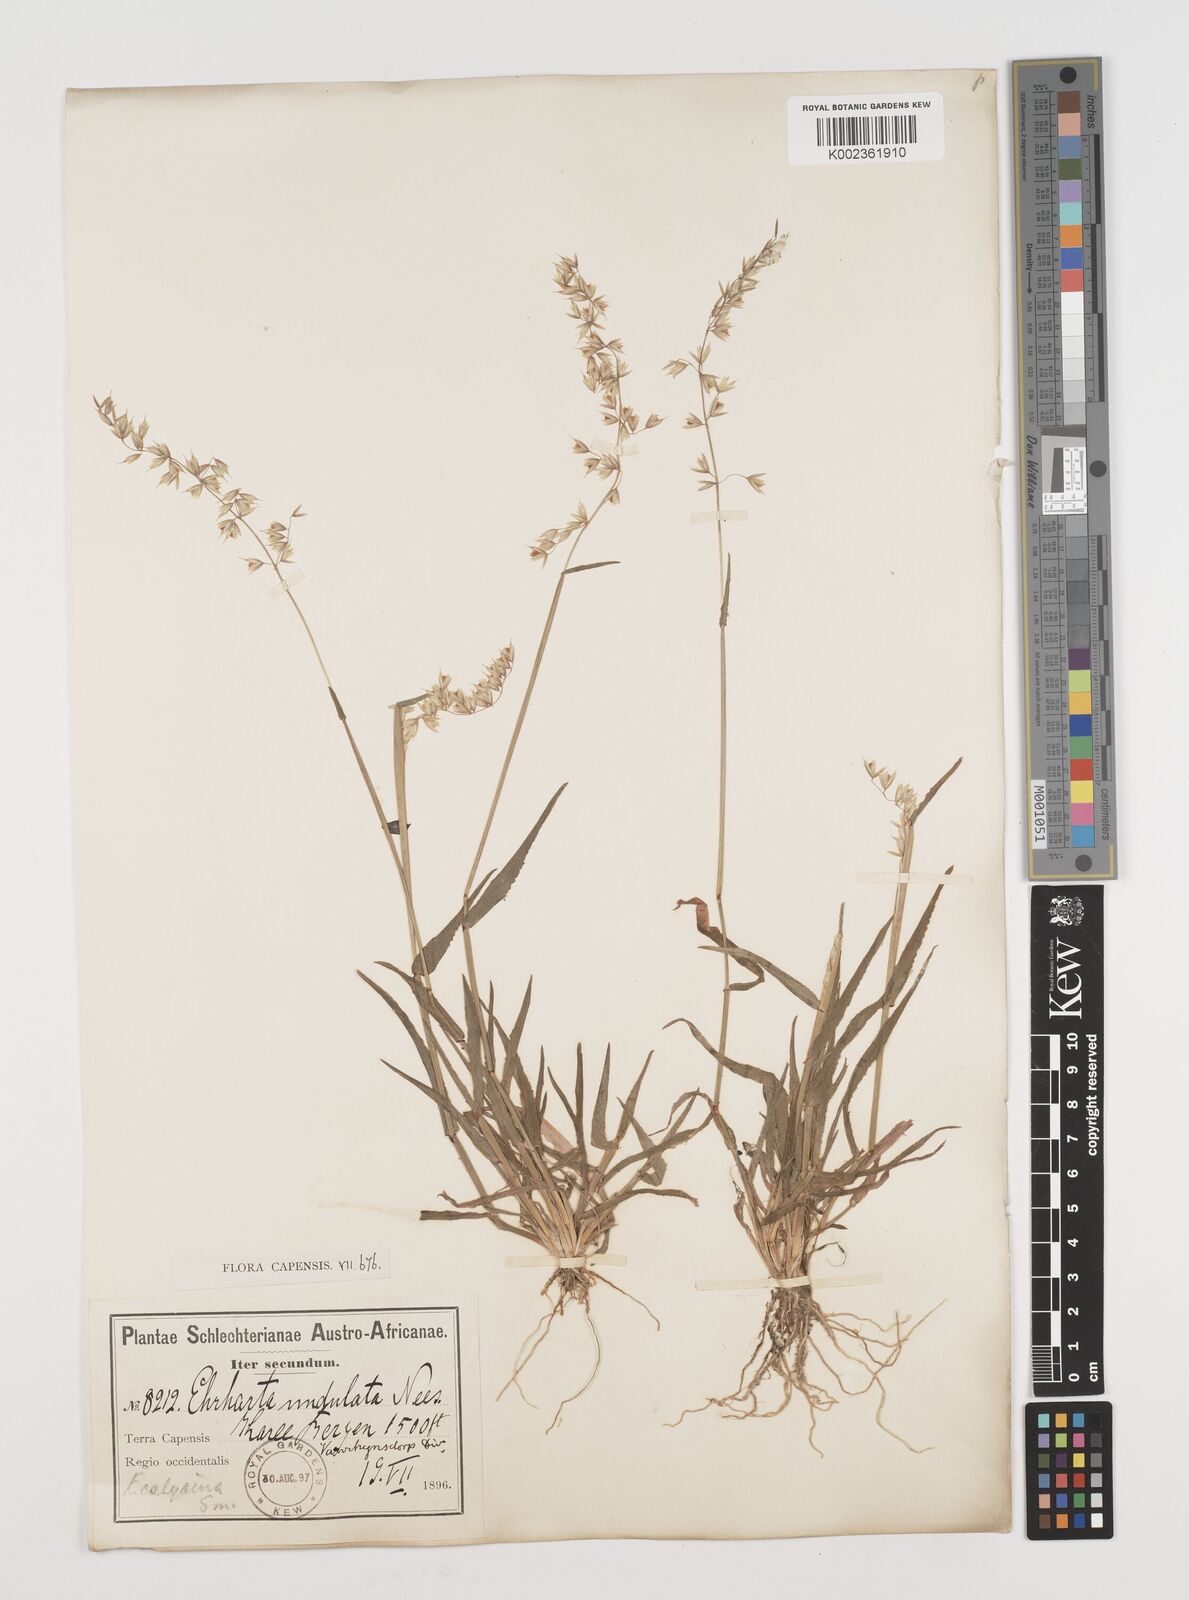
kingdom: Plantae
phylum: Tracheophyta
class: Liliopsida
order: Poales
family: Poaceae
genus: Ehrharta
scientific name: Ehrharta calycina
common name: Perennial veldtgrass
